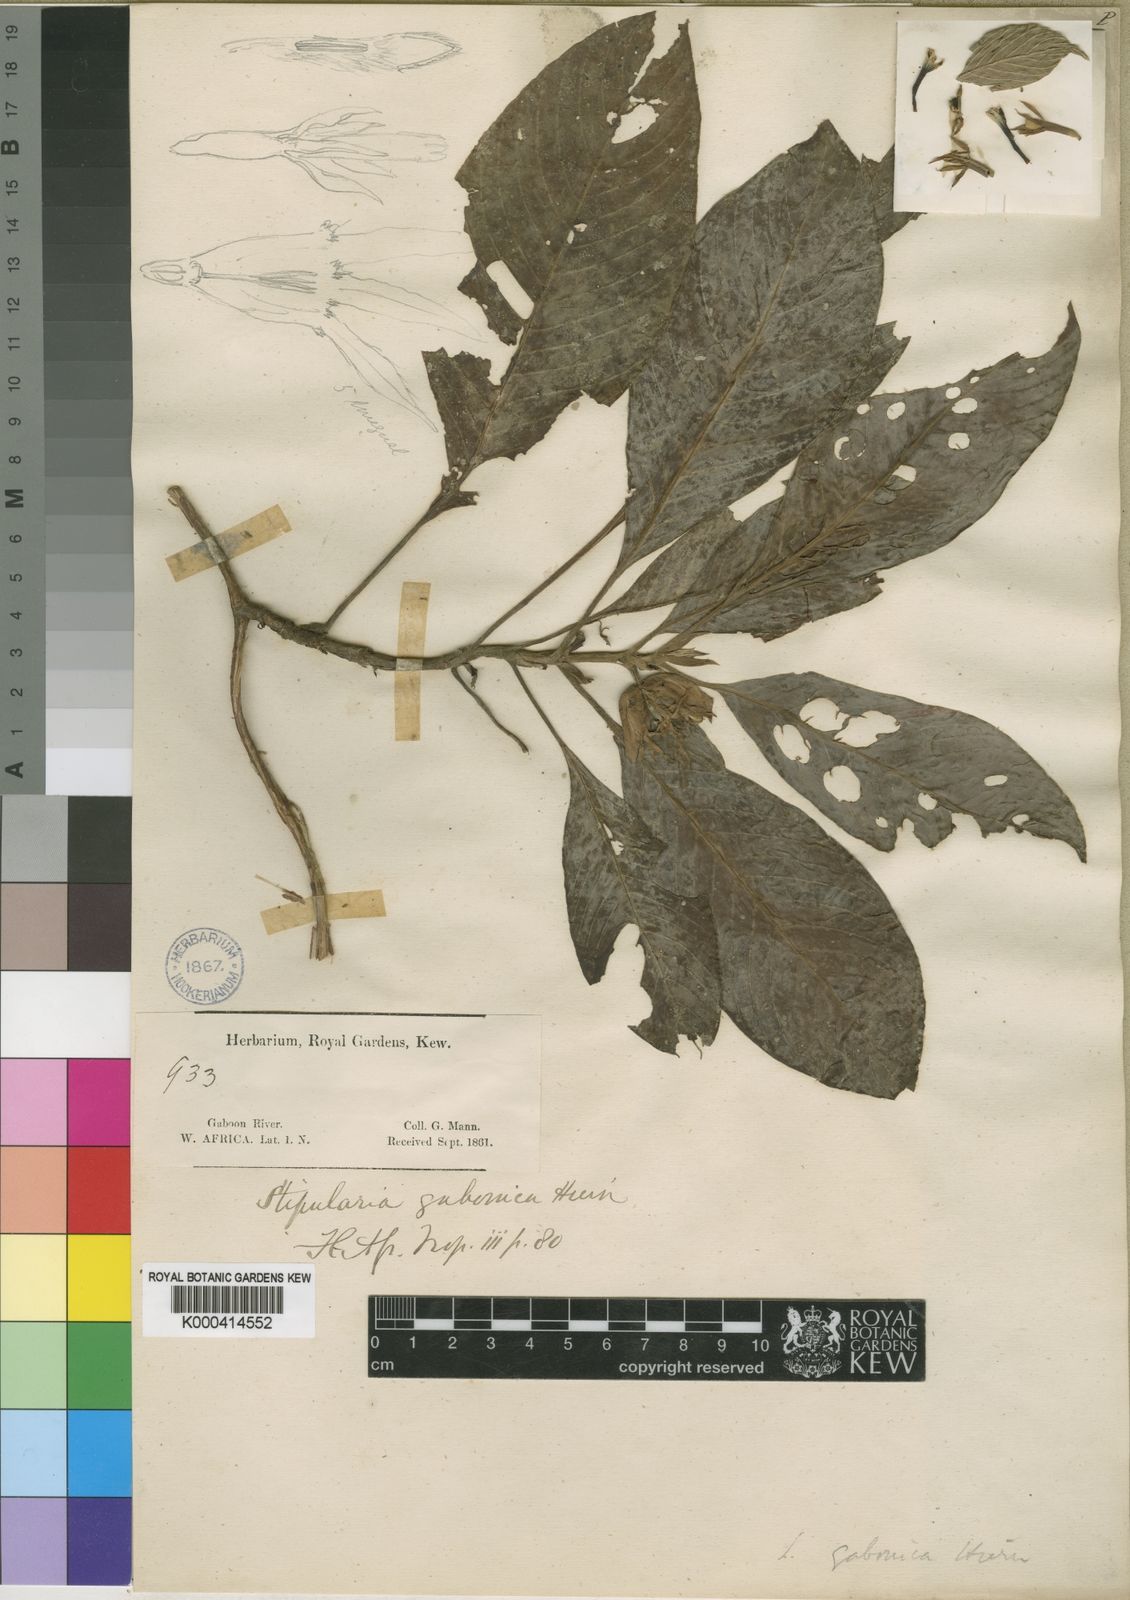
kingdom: Plantae
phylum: Tracheophyta
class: Magnoliopsida
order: Gentianales
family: Rubiaceae
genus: Sabicea
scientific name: Sabicea gabonica
